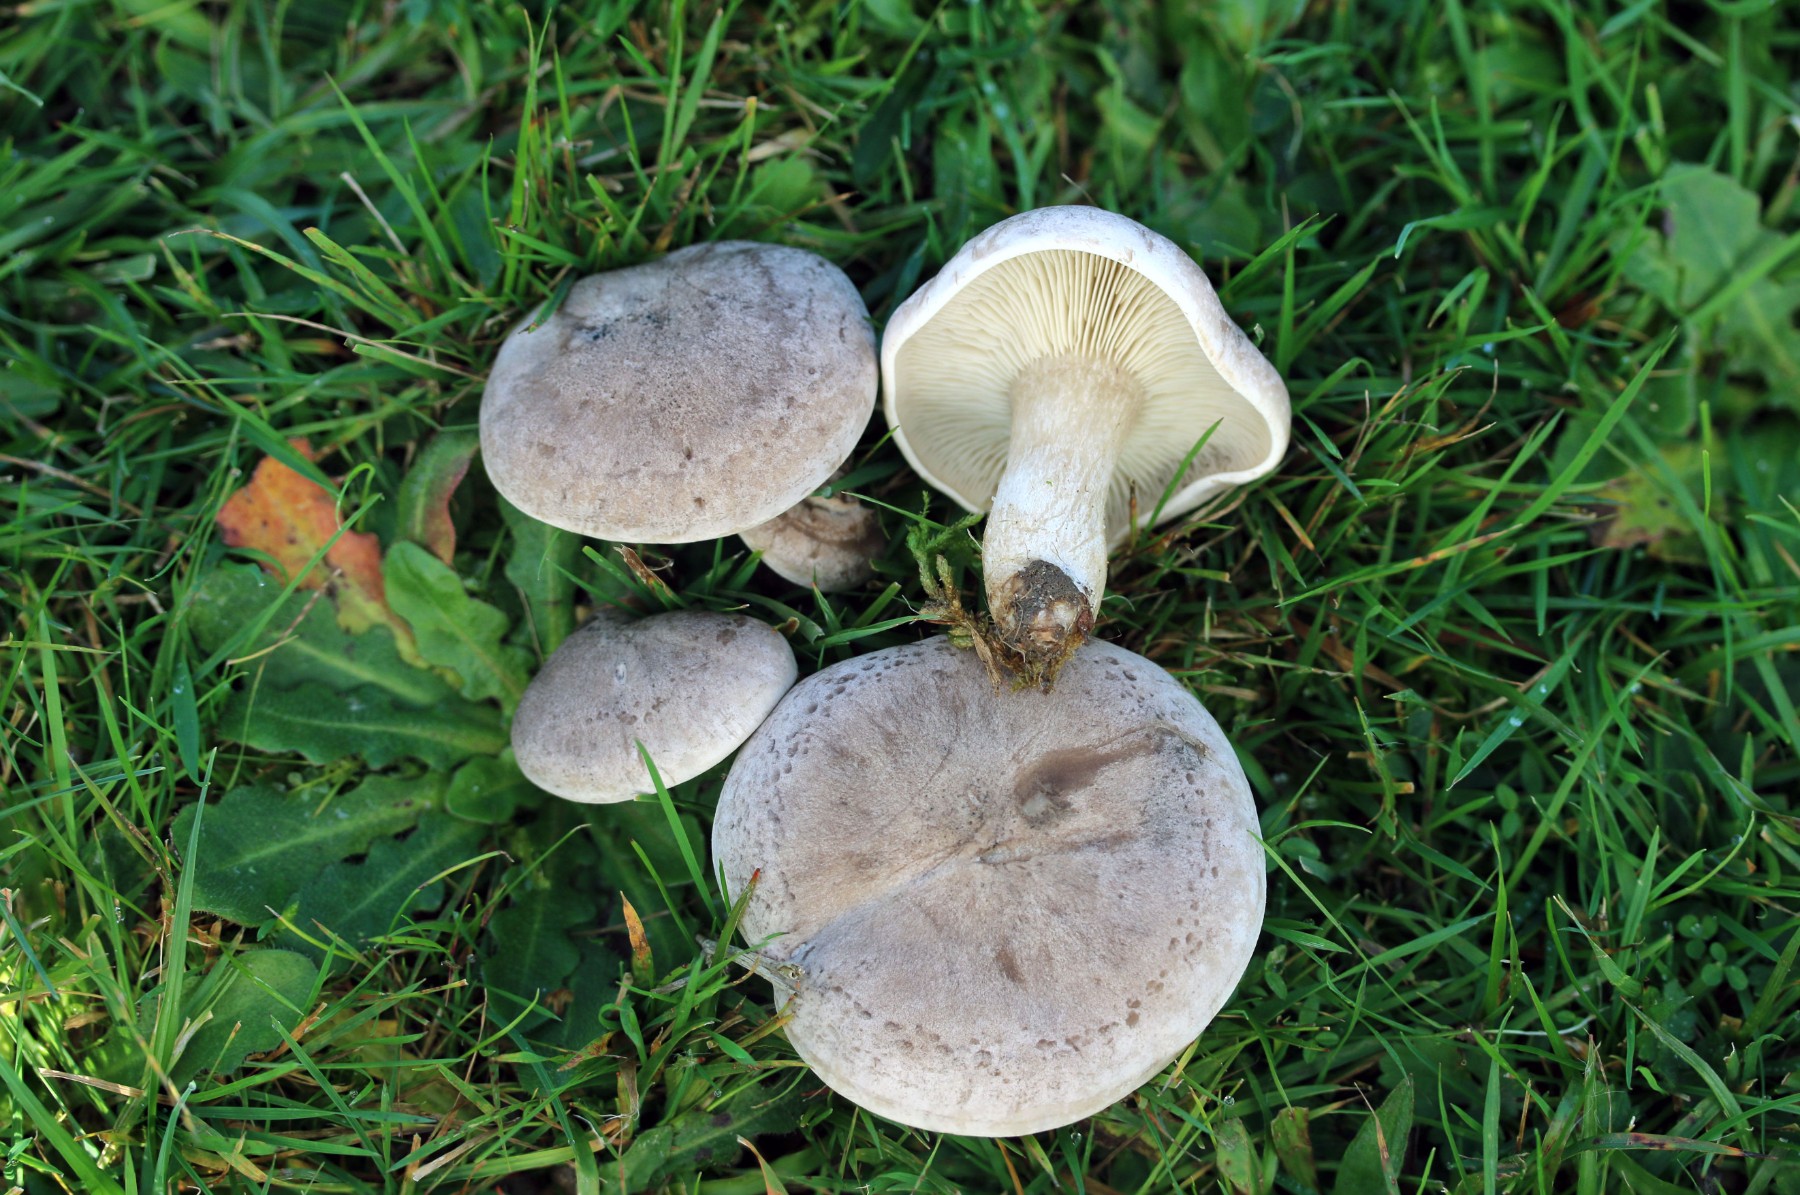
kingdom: Fungi
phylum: Basidiomycota
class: Agaricomycetes
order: Agaricales
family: Tricholomataceae
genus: Lepista
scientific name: Lepista panaeolus
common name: marmoreret hekseringshat
